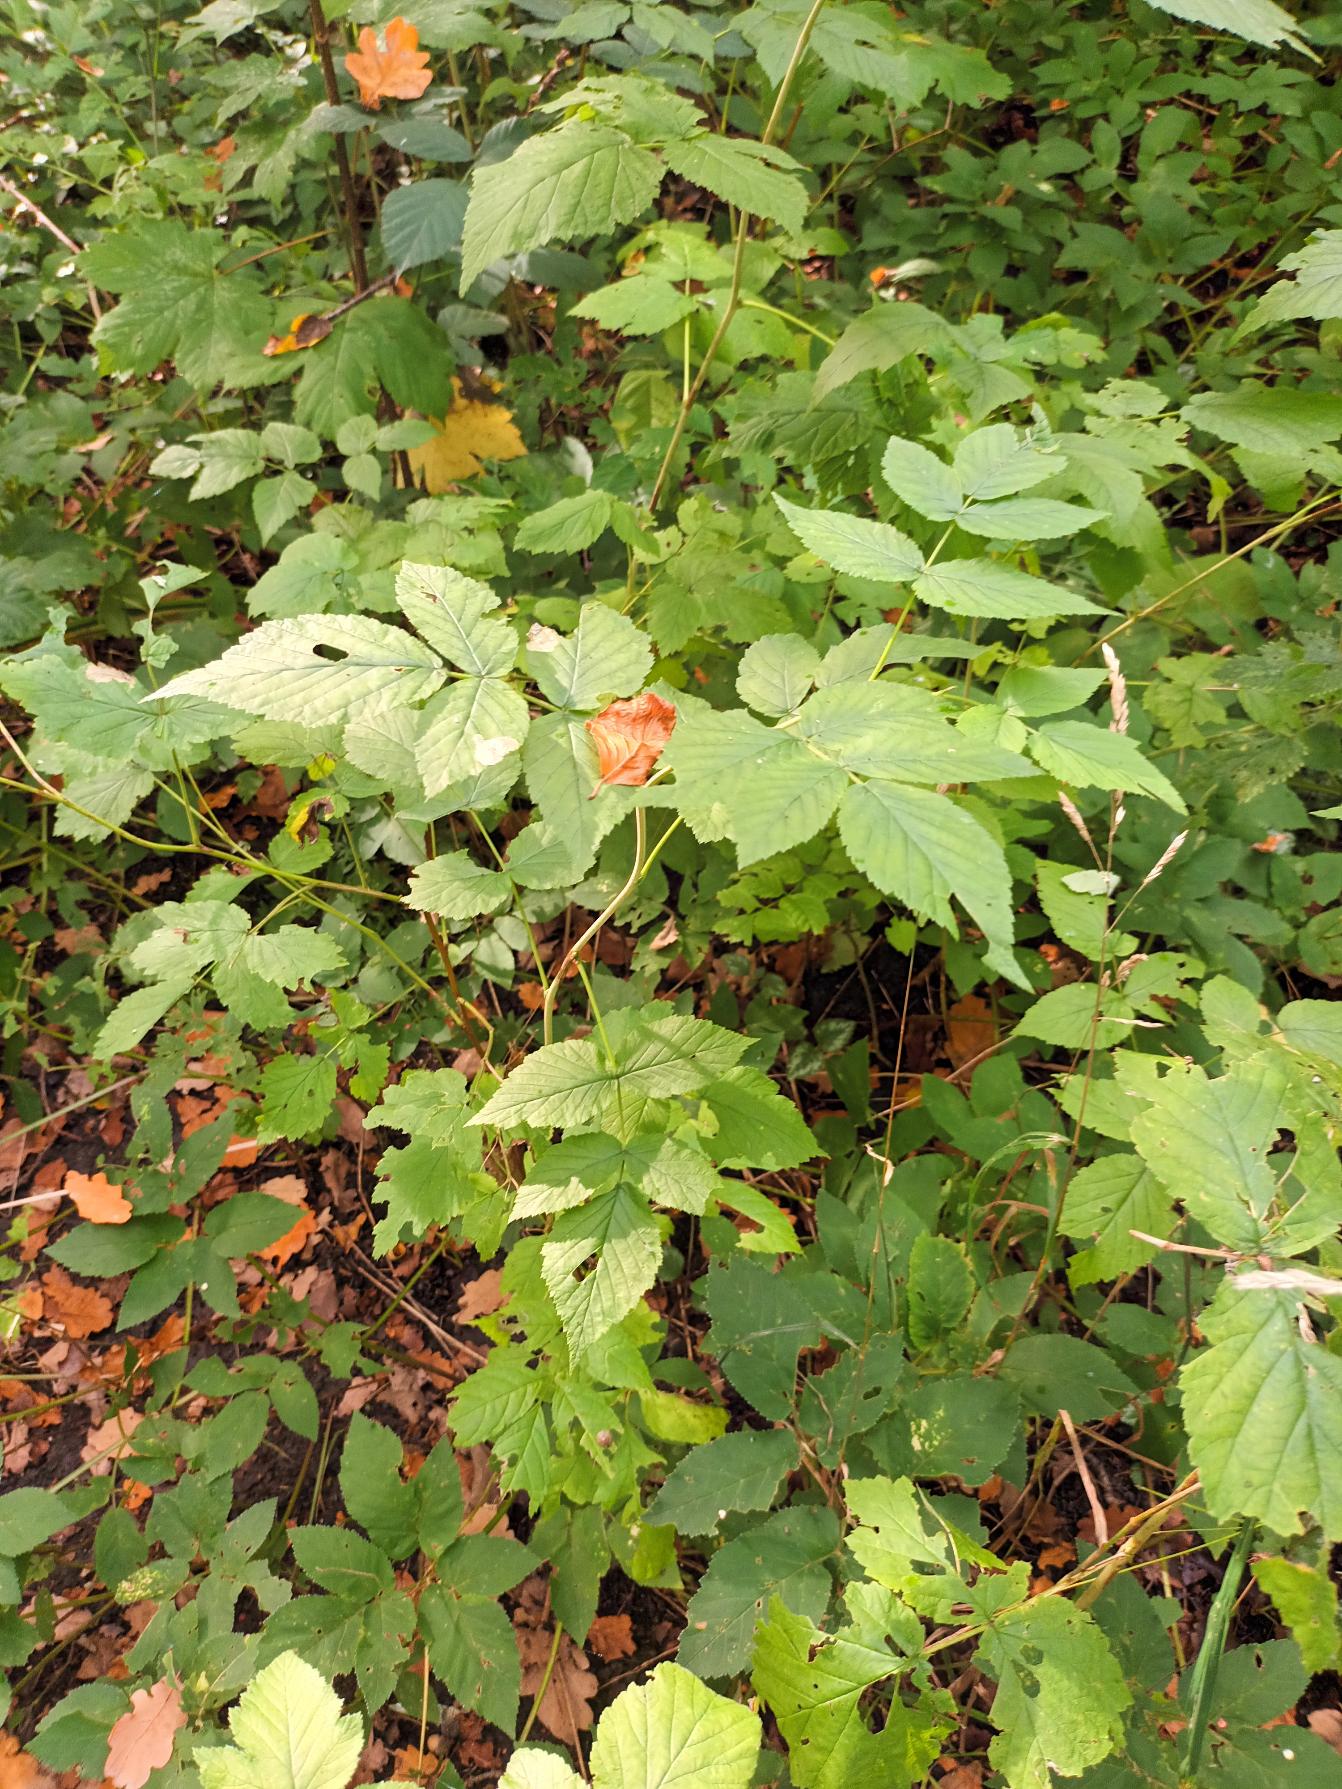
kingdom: Plantae
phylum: Tracheophyta
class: Magnoliopsida
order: Rosales
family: Rosaceae
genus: Rubus
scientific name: Rubus idaeus
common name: Hindbær
